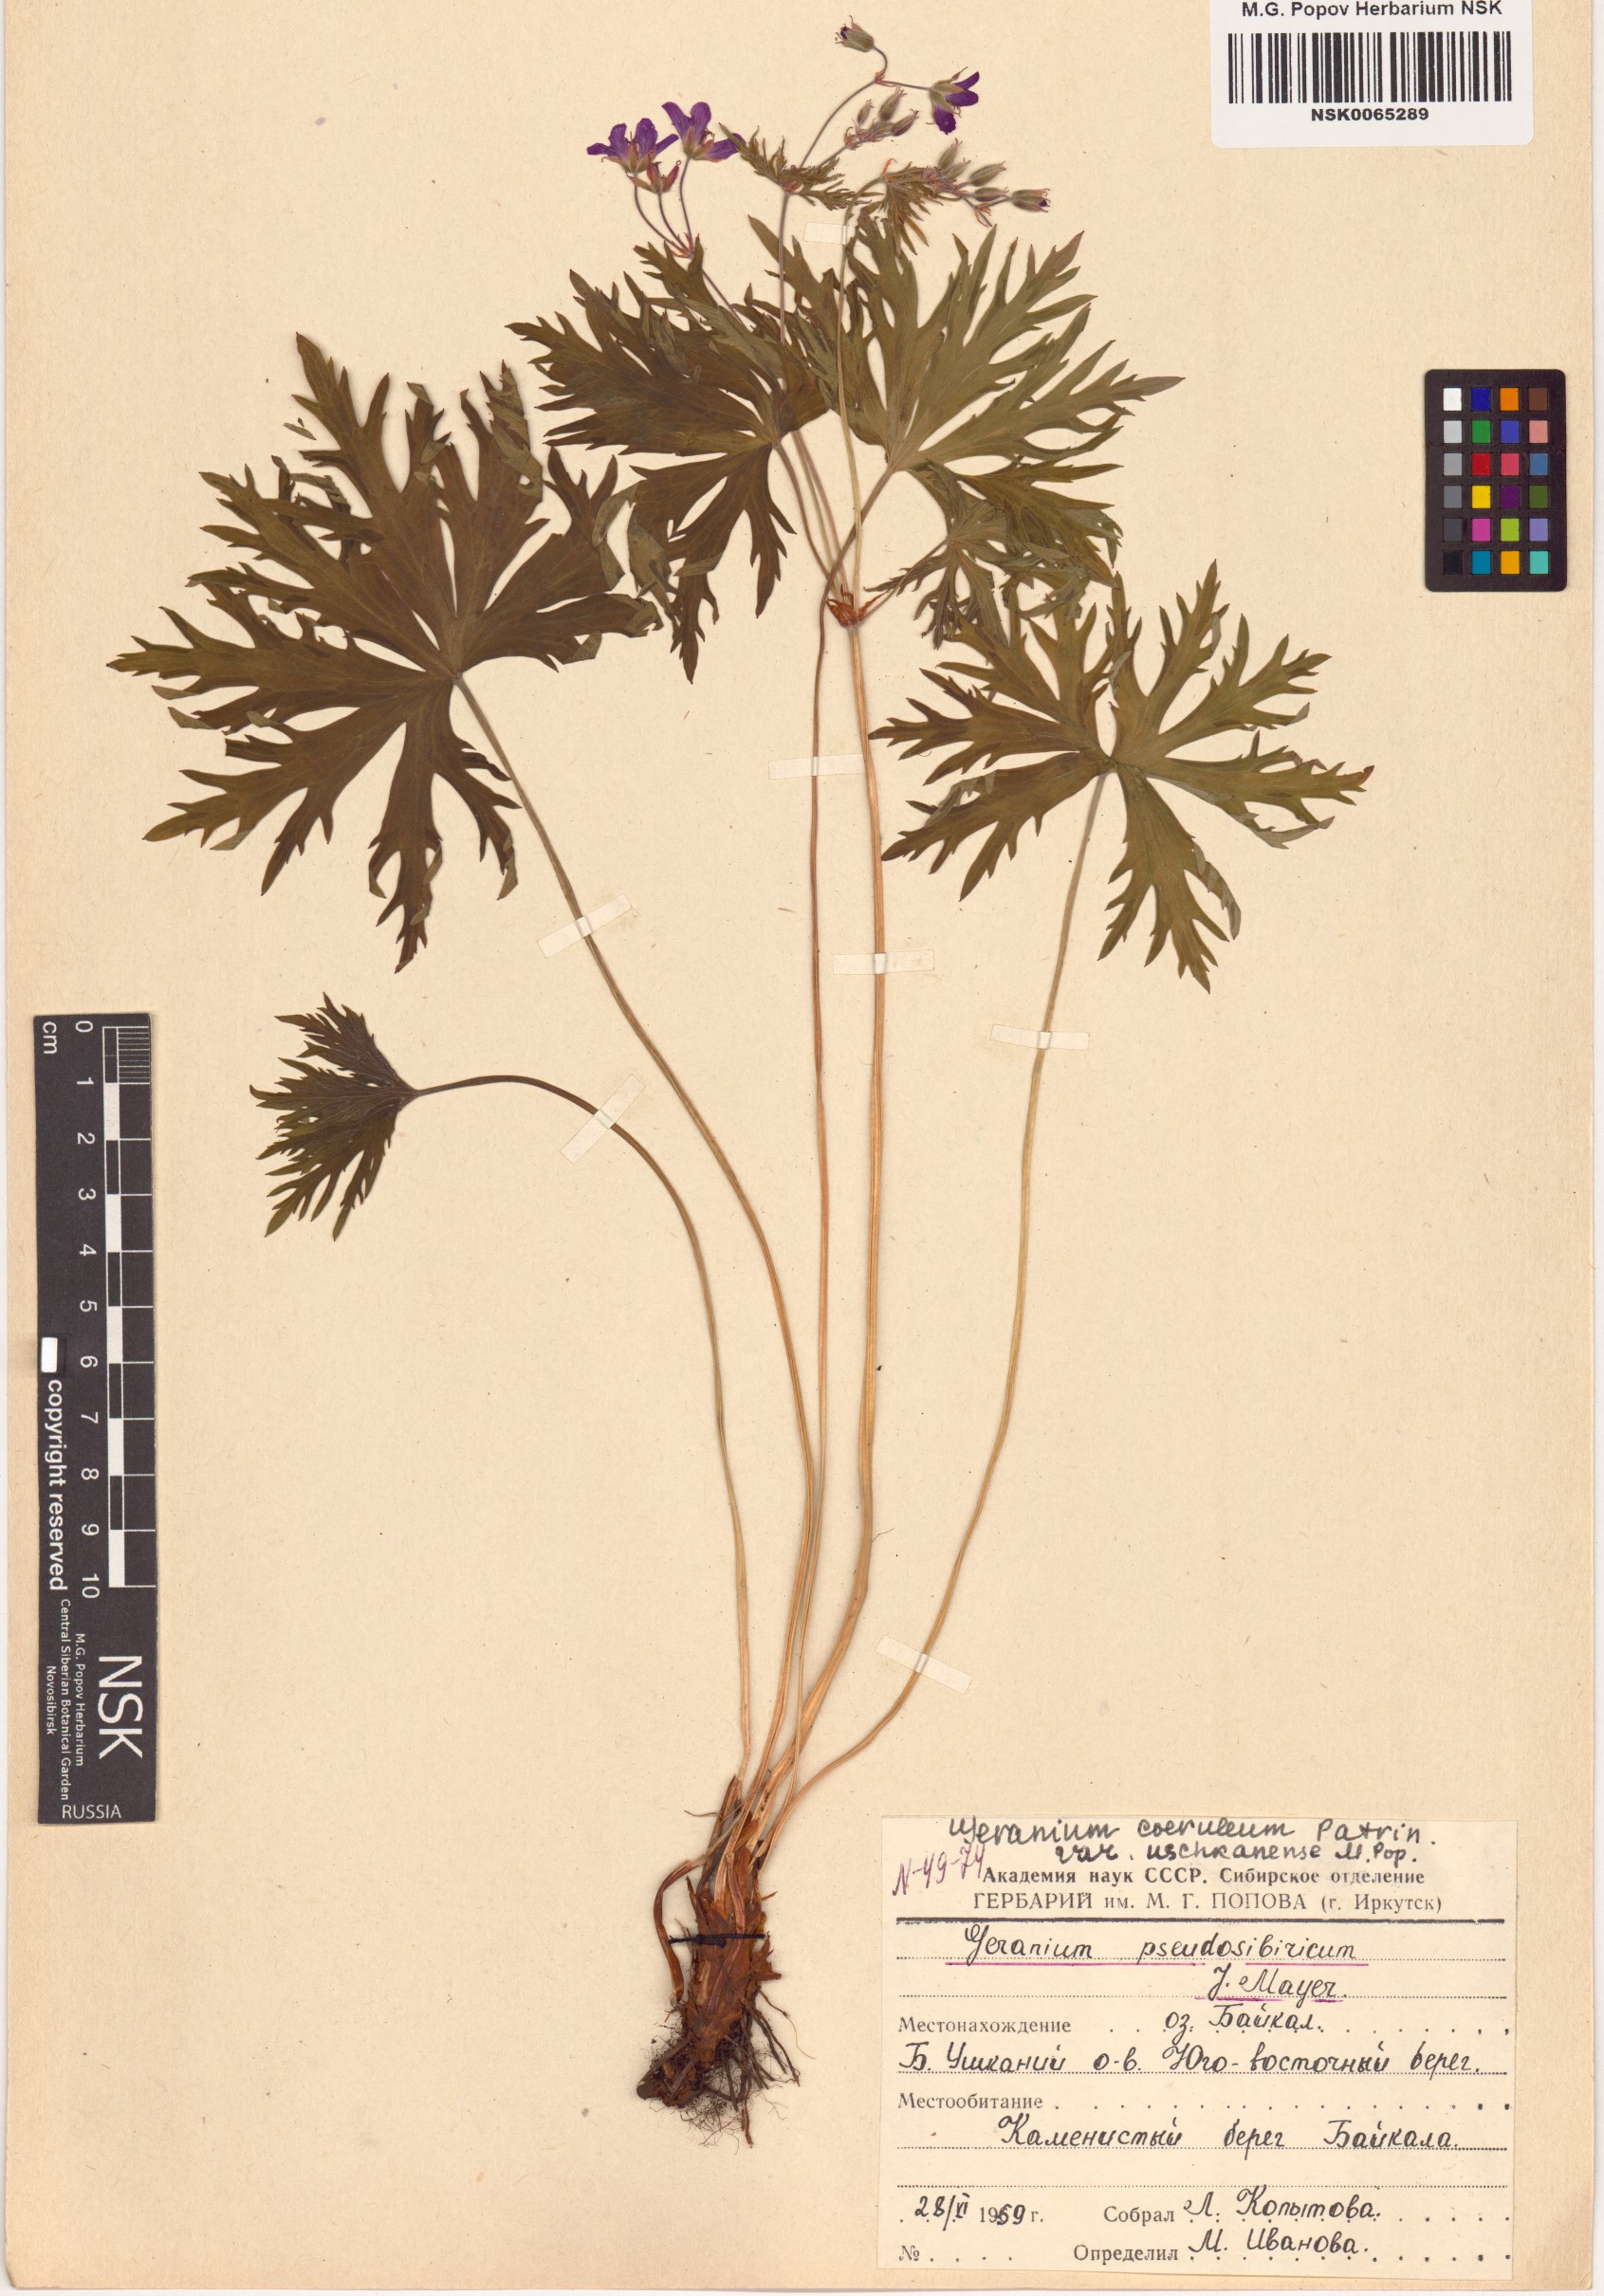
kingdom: Plantae
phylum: Tracheophyta
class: Magnoliopsida
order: Geraniales
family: Geraniaceae
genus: Geranium
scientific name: Geranium pseudosibiricum
